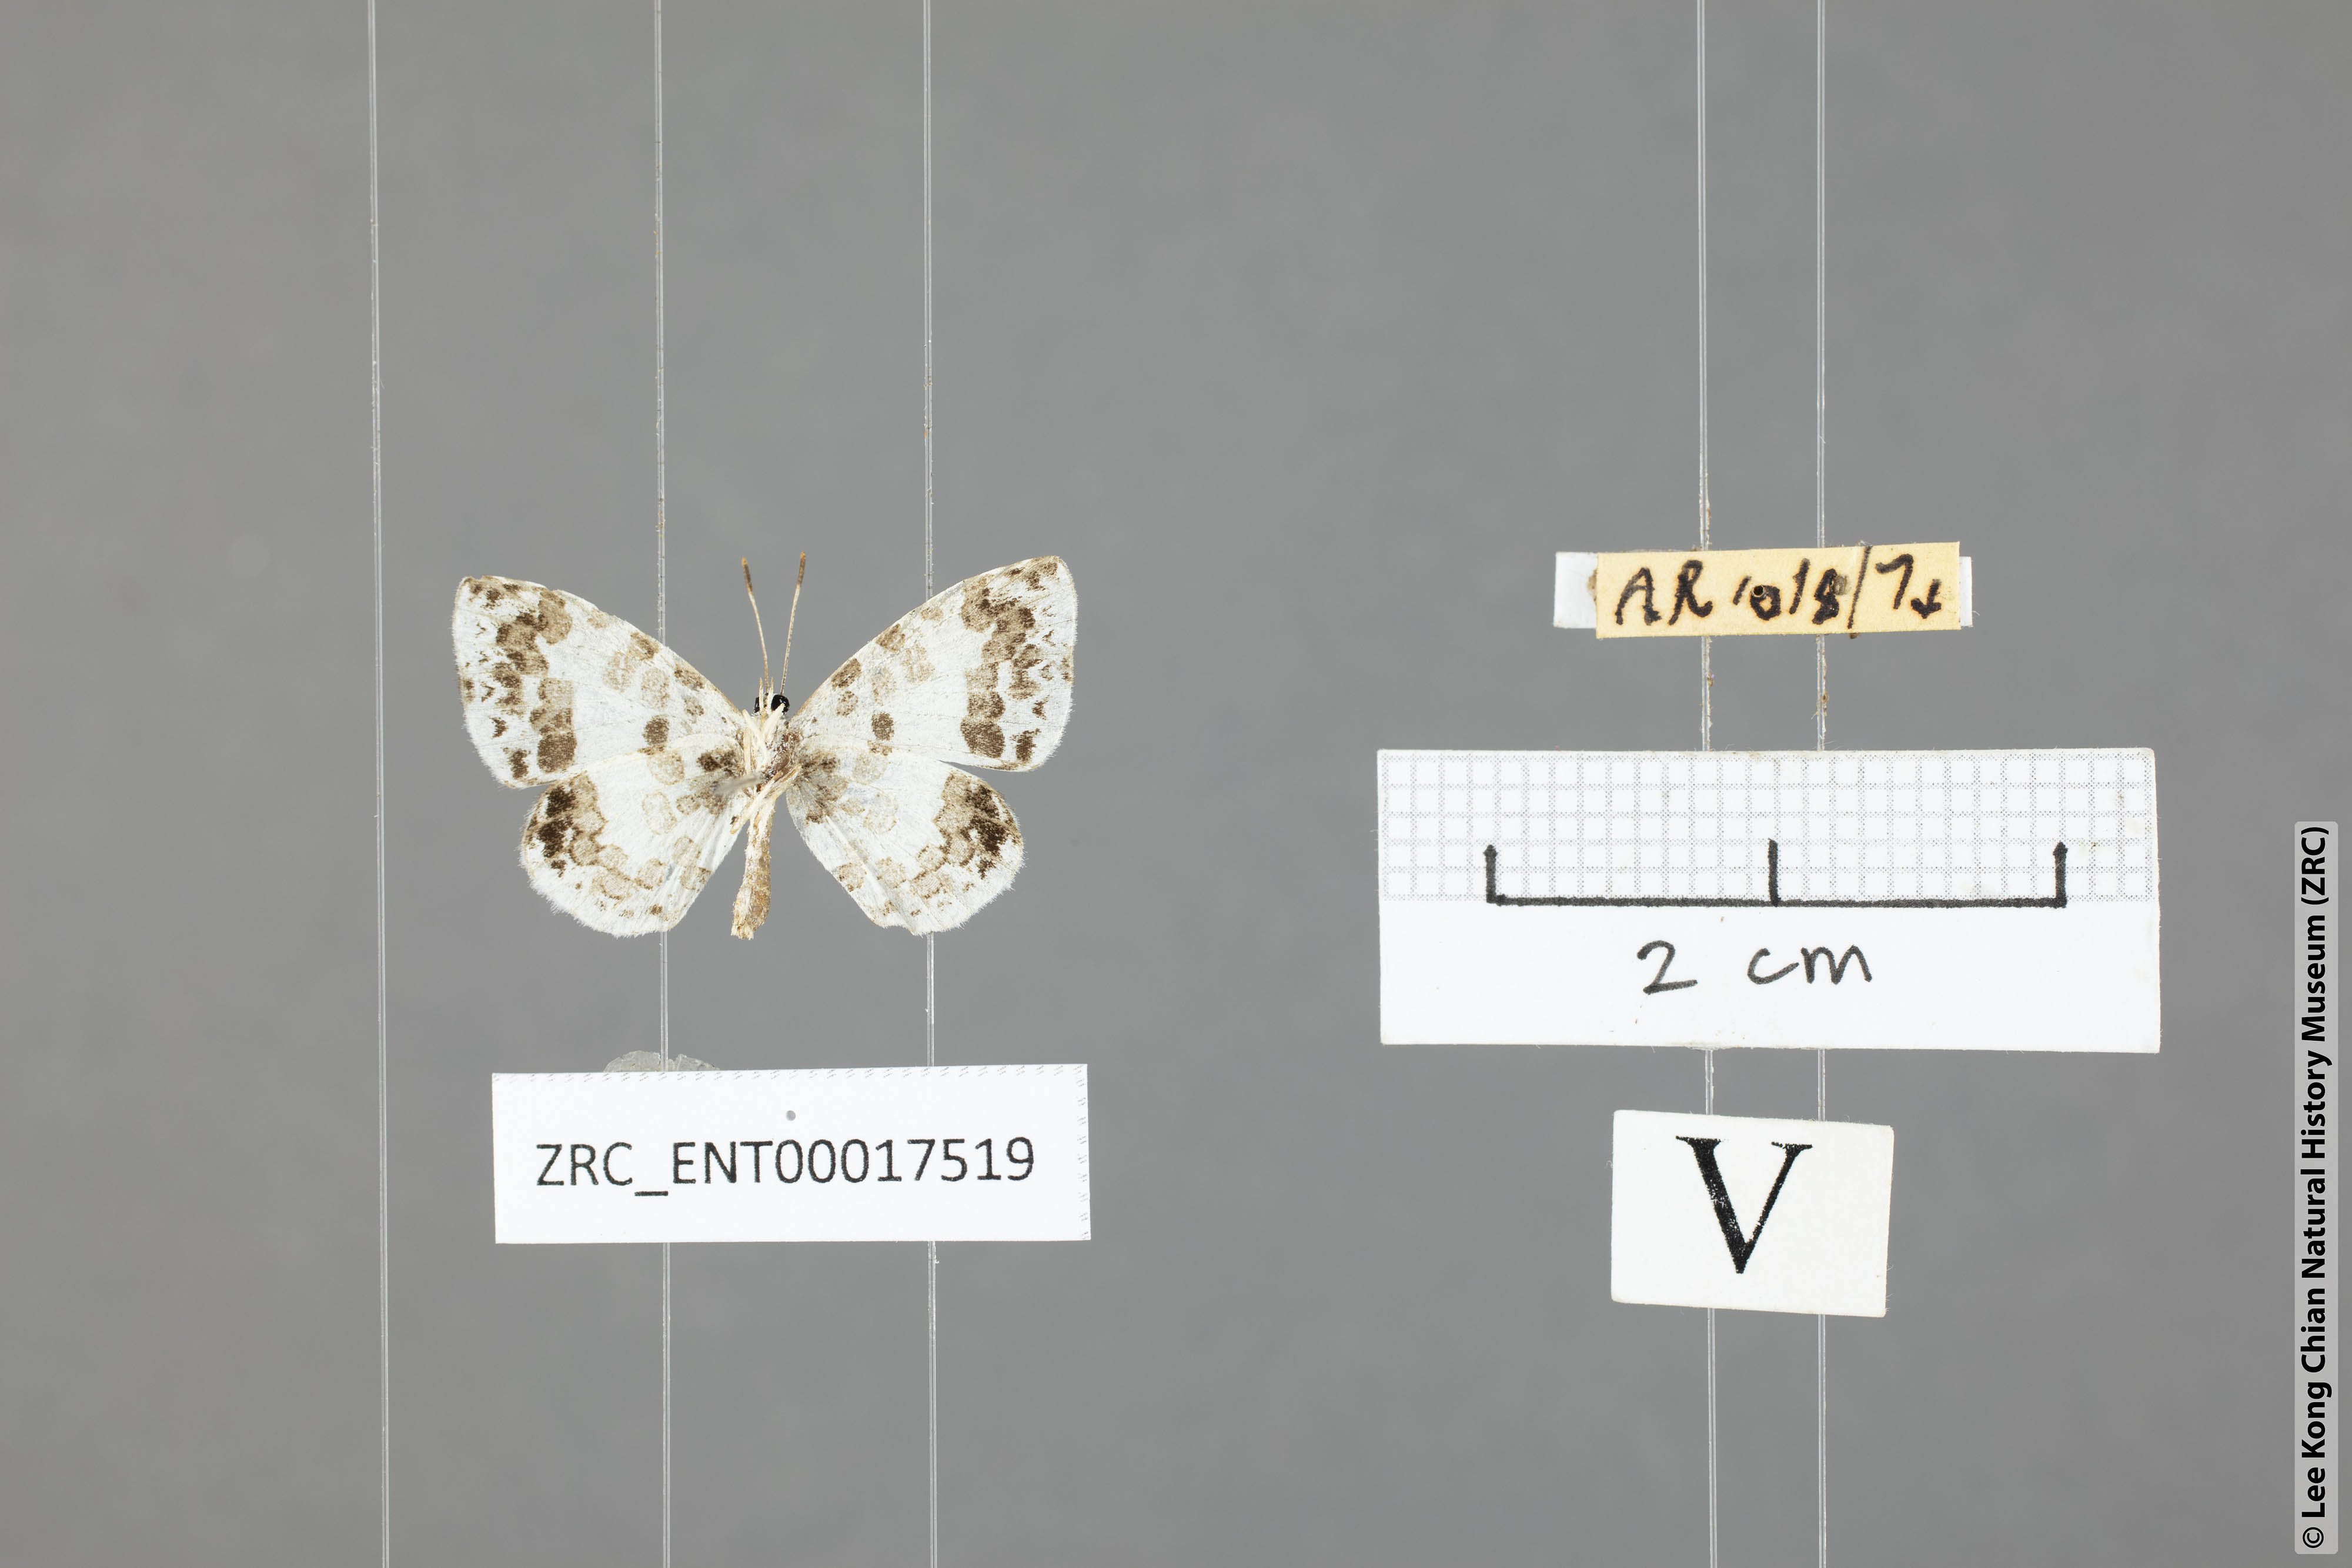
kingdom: Animalia
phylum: Arthropoda
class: Insecta
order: Lepidoptera
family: Lycaenidae
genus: Taraka
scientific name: Taraka mahanetra
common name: Lesser pierrot
